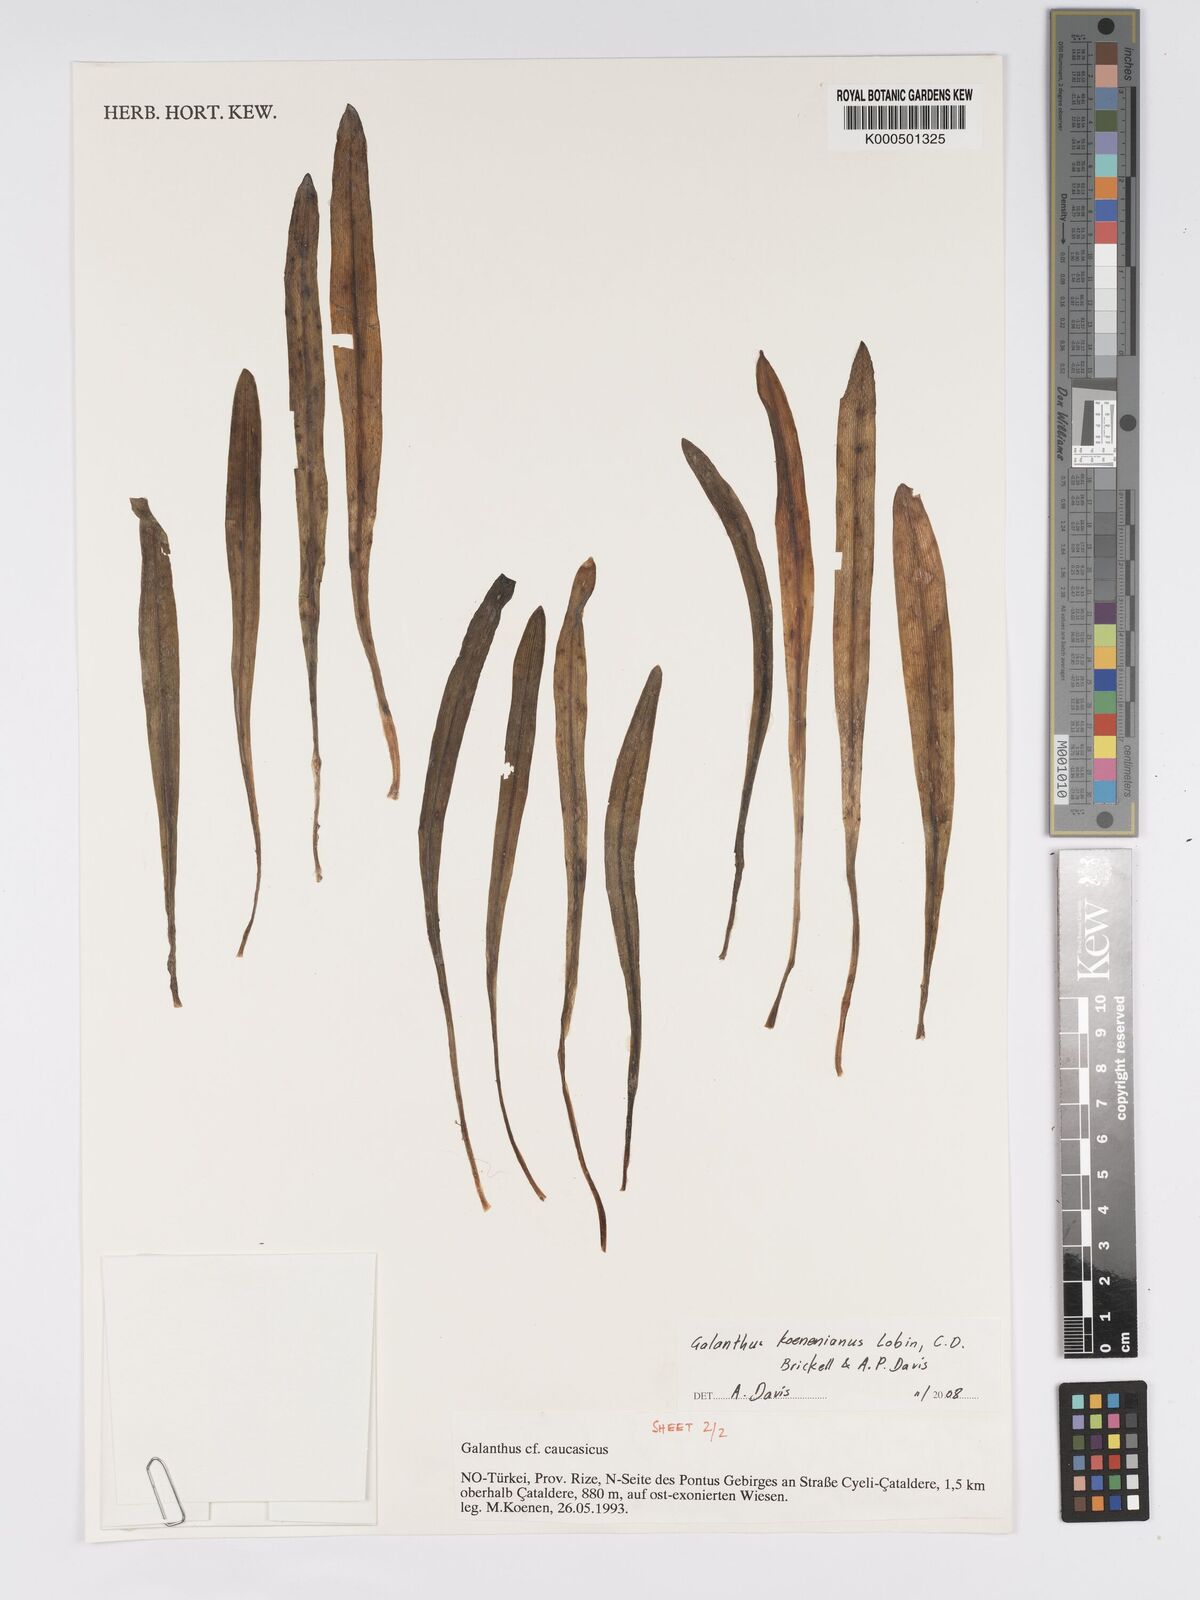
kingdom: Plantae
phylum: Tracheophyta
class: Liliopsida
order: Asparagales
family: Amaryllidaceae
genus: Galanthus
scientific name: Galanthus koenenianus
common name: Koenen's snowdrop
